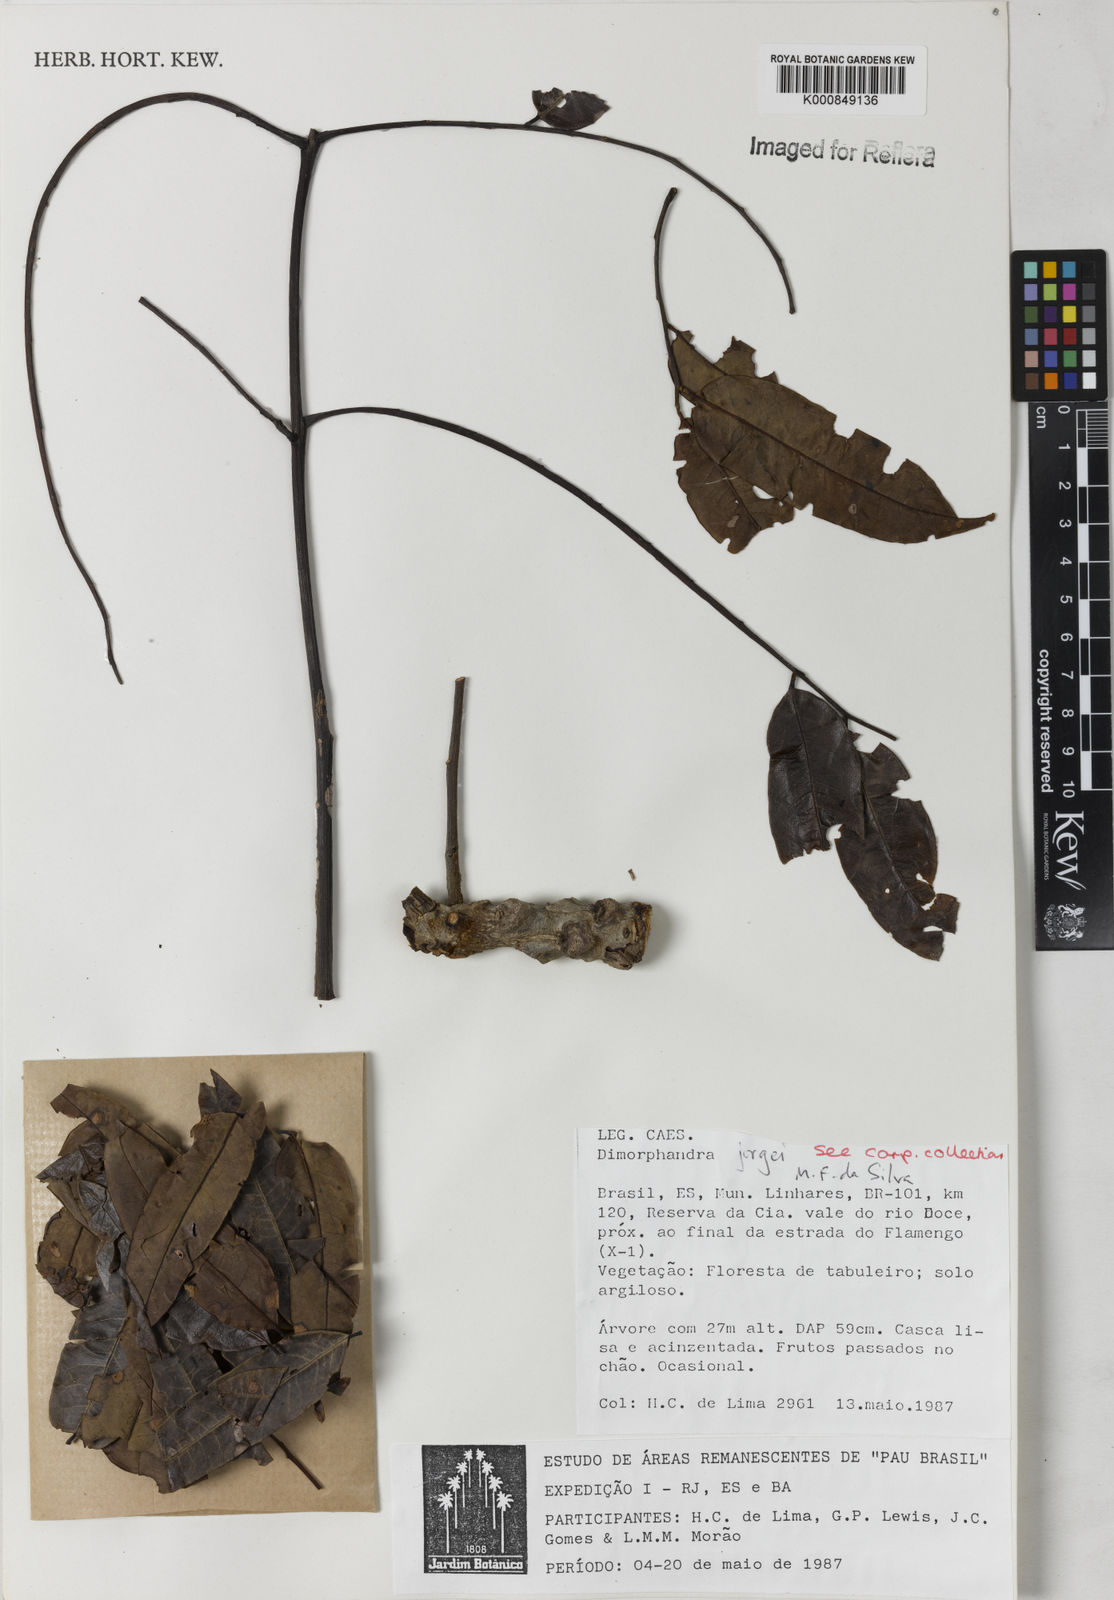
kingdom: Plantae
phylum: Tracheophyta
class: Magnoliopsida
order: Fabales
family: Fabaceae
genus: Dimorphandra
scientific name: Dimorphandra jorgei
